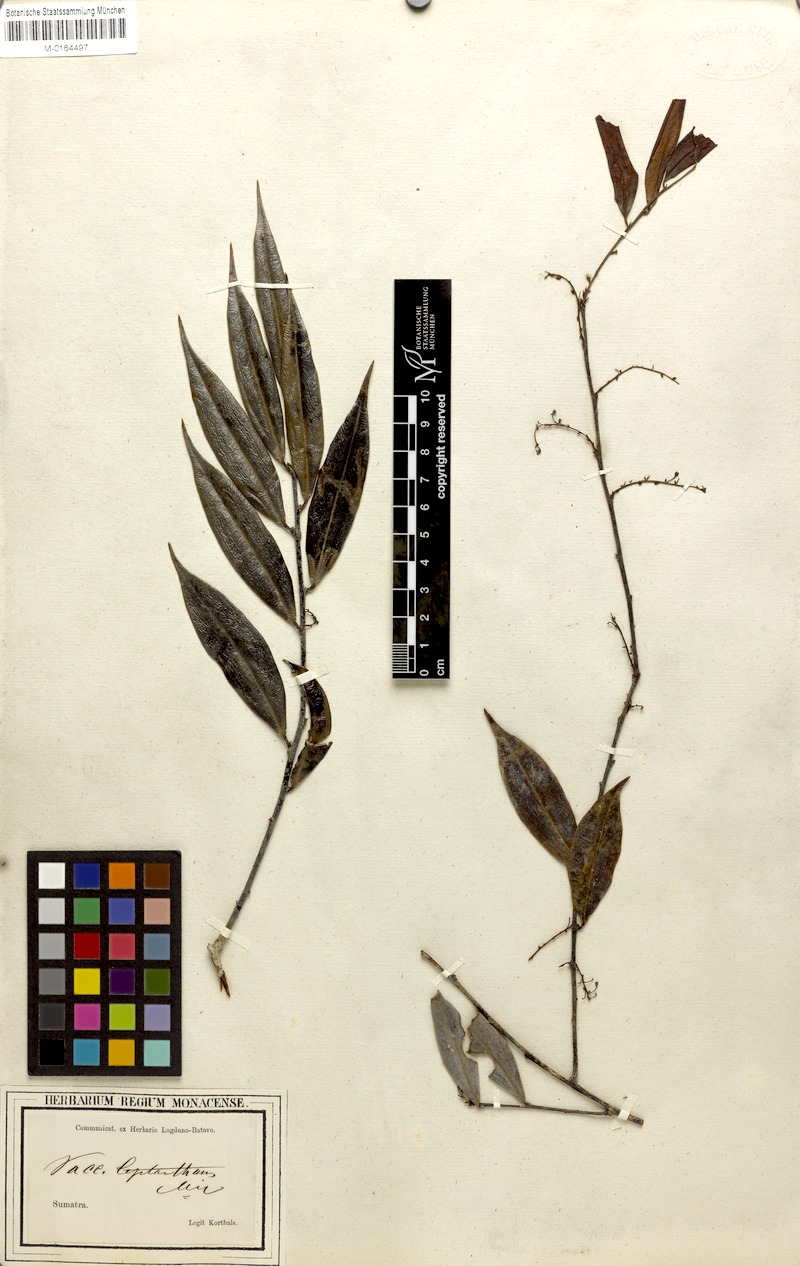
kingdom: Plantae
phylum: Tracheophyta
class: Magnoliopsida
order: Ericales
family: Ericaceae
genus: Rigiolepis
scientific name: Rigiolepis leptantha
